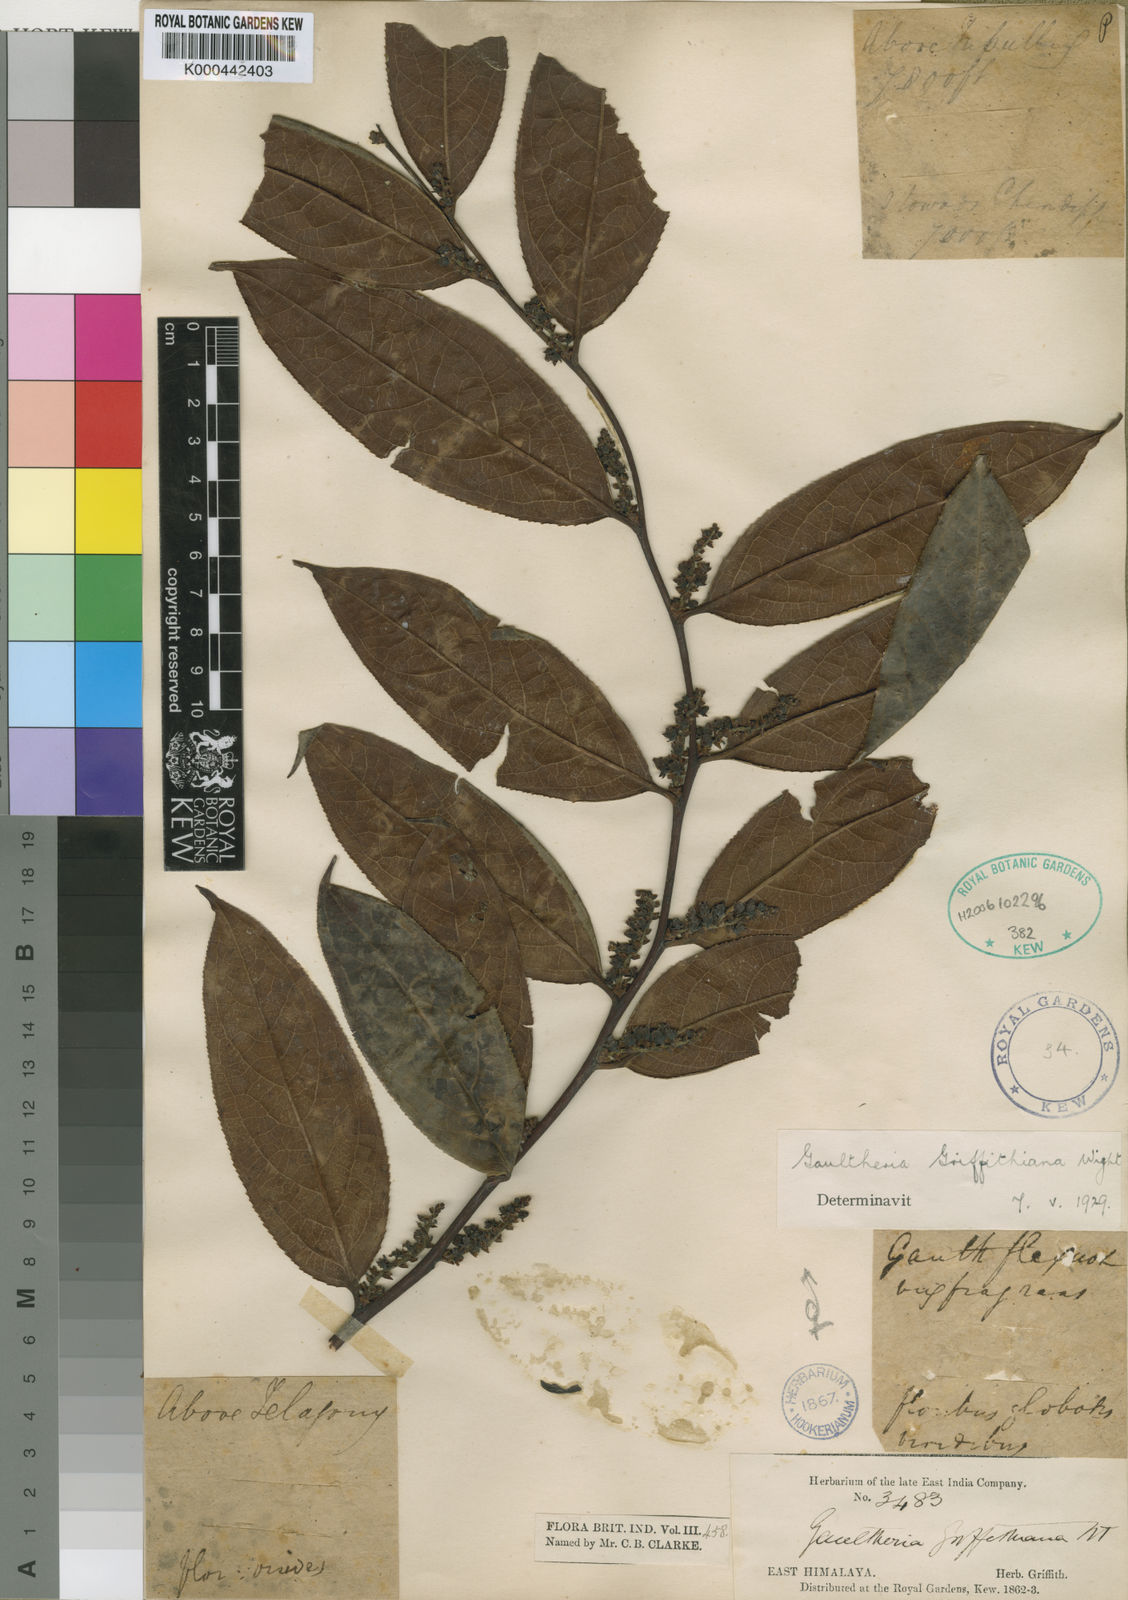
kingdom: Plantae
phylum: Tracheophyta
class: Magnoliopsida
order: Ericales
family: Ericaceae
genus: Gaultheria
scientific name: Gaultheria griffithiana
